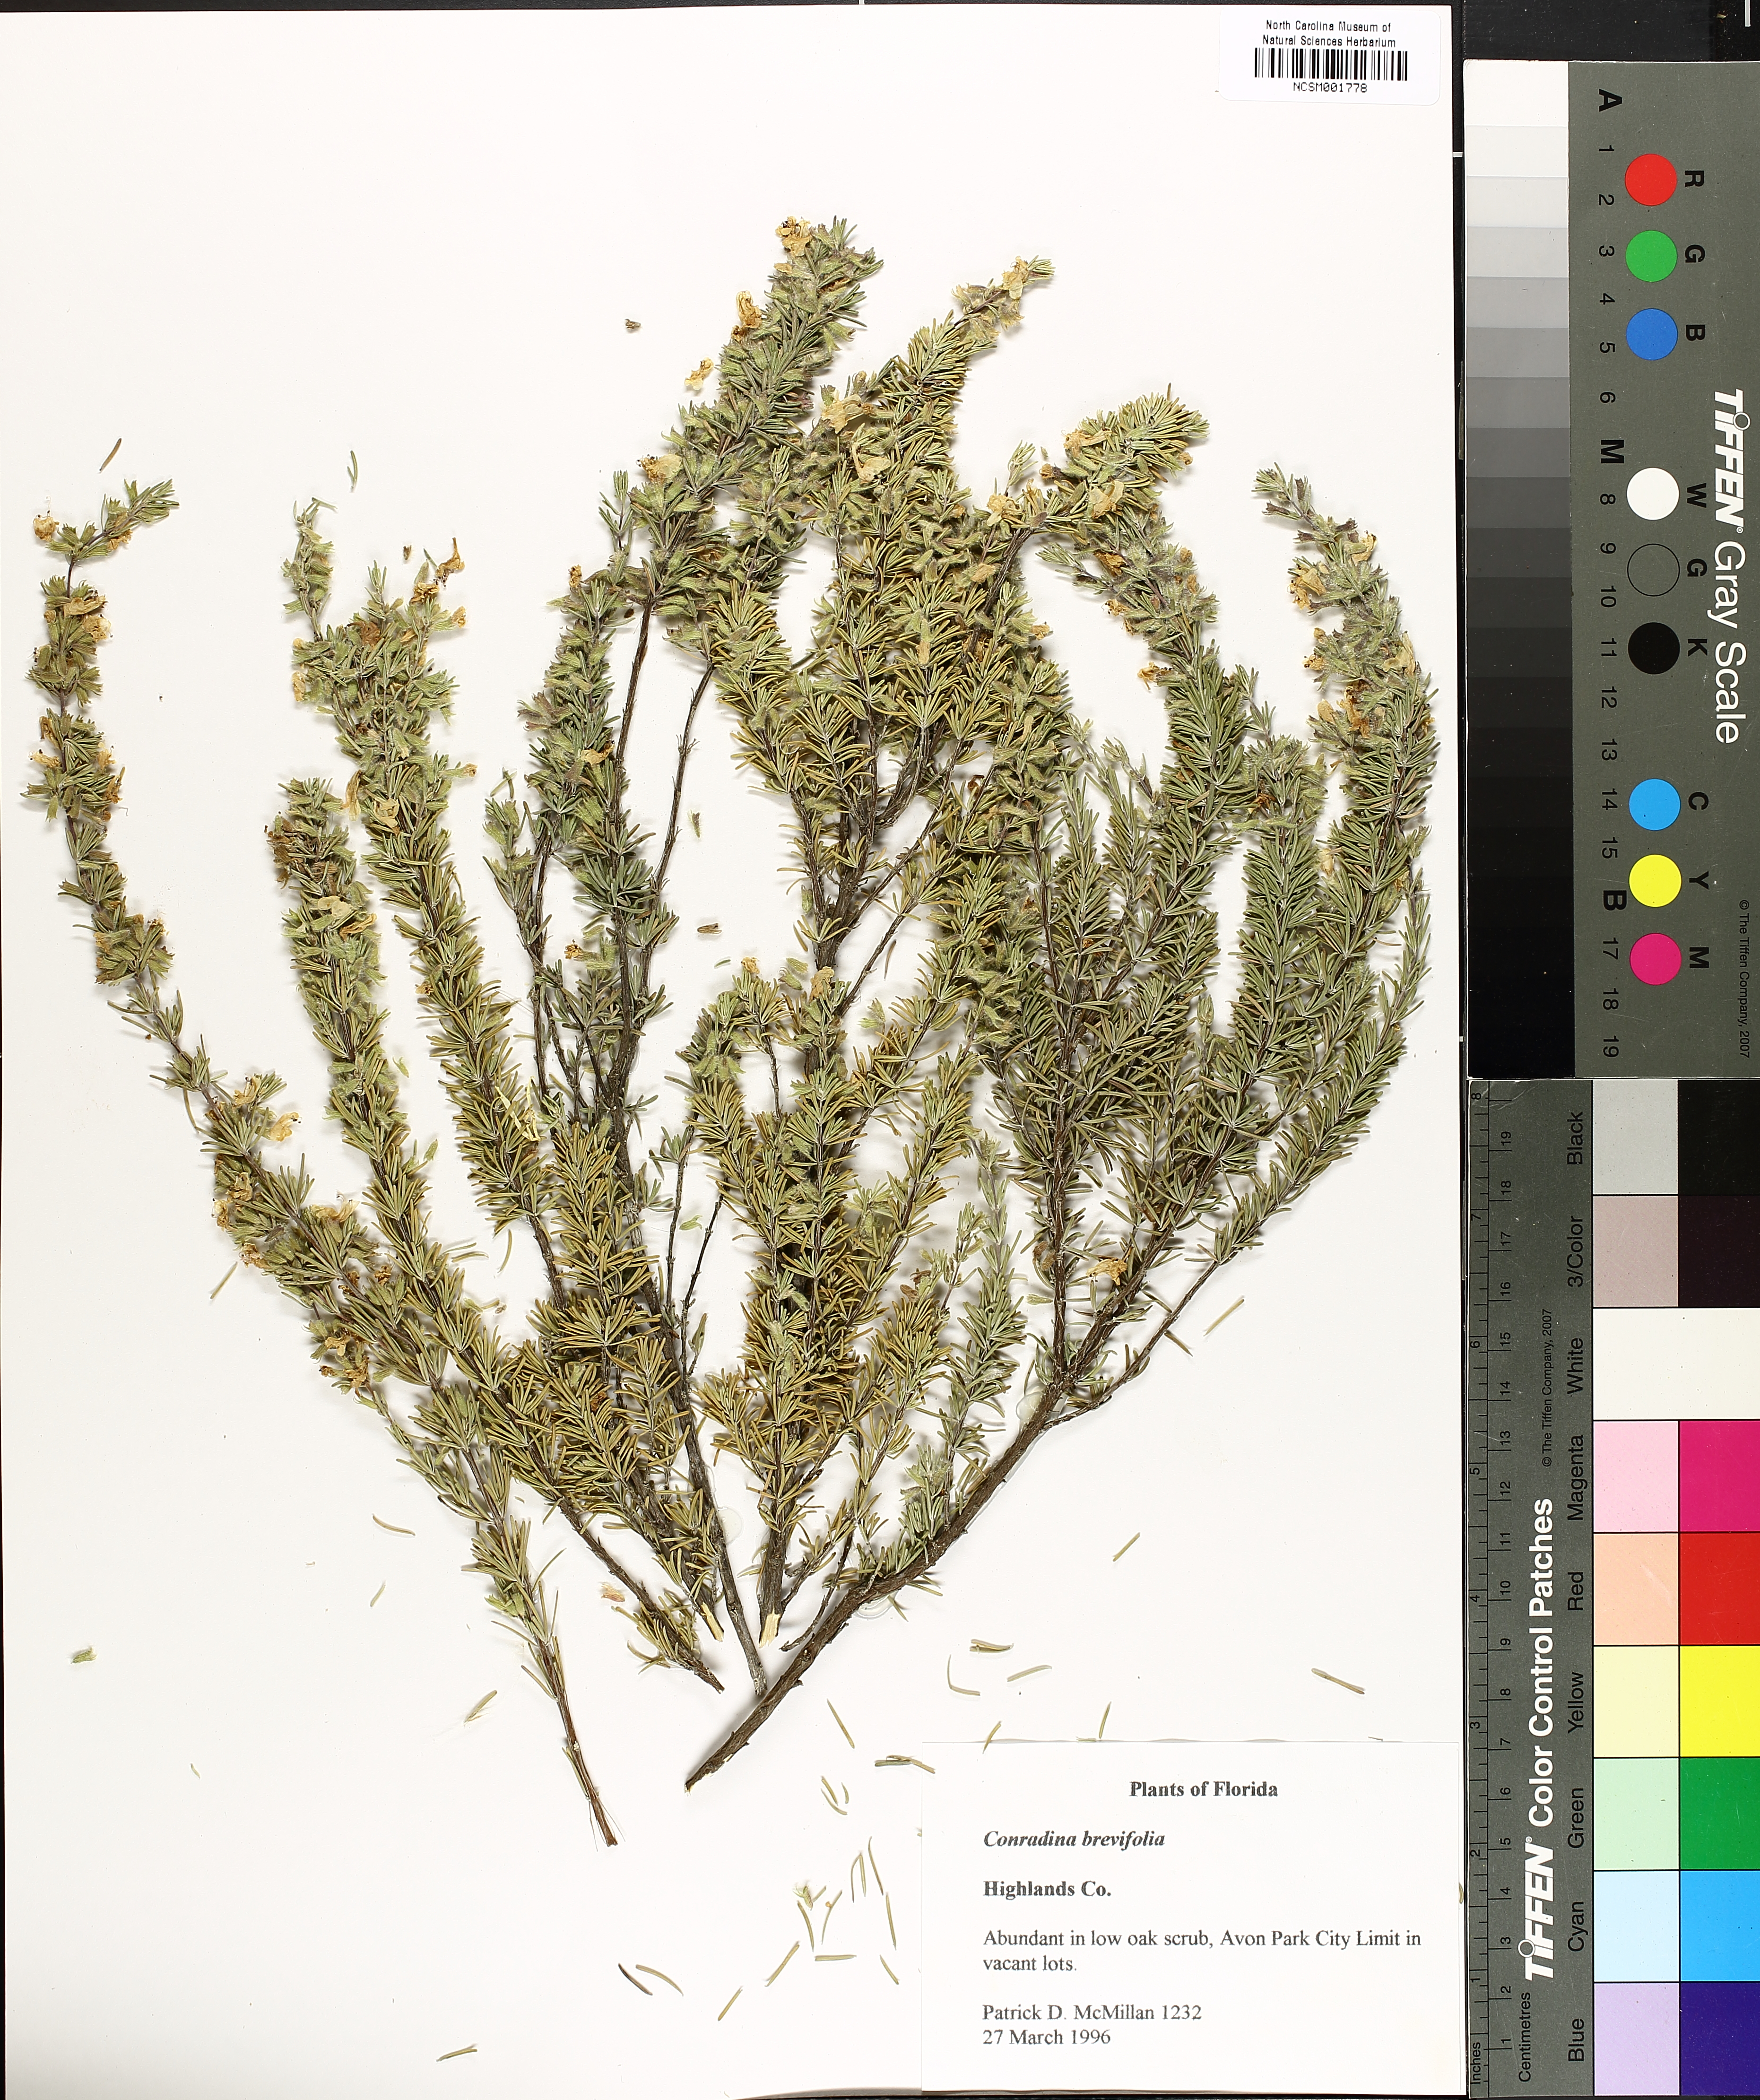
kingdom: Plantae
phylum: Tracheophyta
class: Magnoliopsida
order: Lamiales
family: Lamiaceae
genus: Conradina
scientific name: Conradina canescens
